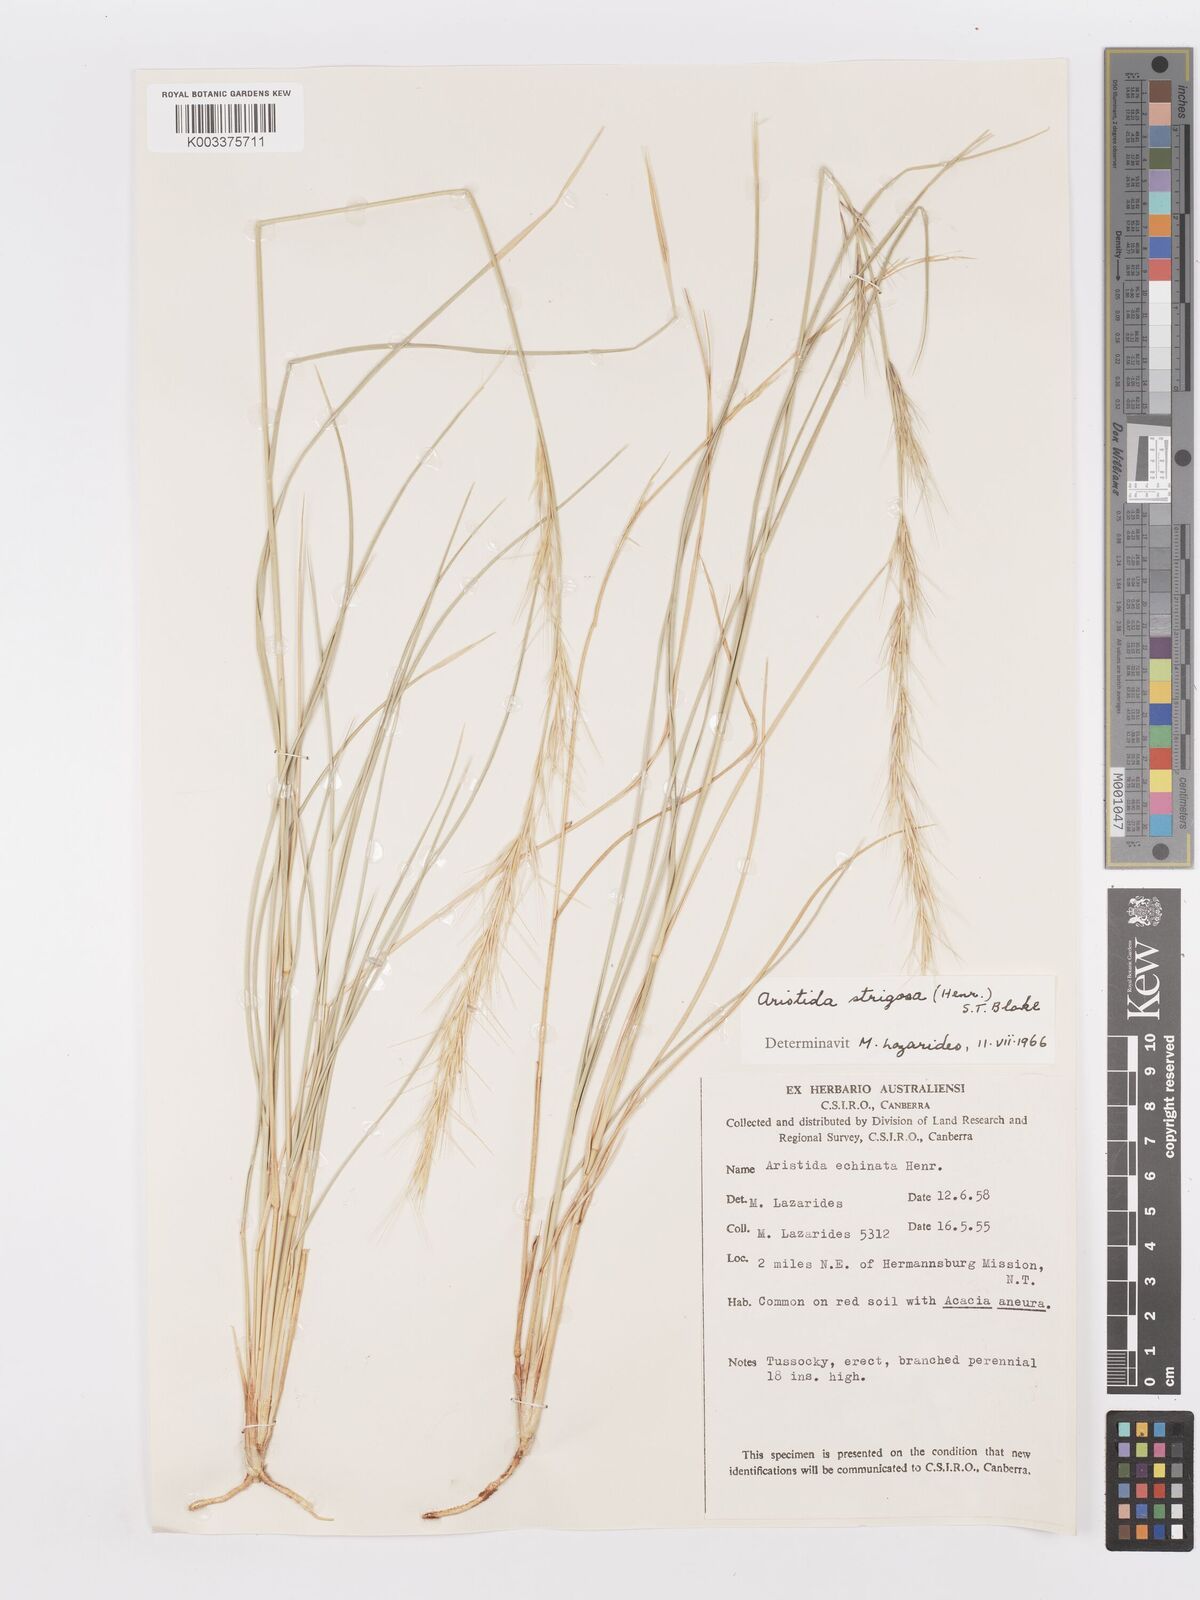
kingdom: Plantae
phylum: Tracheophyta
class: Liliopsida
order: Poales
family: Poaceae
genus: Aristida
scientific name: Aristida strigosa
